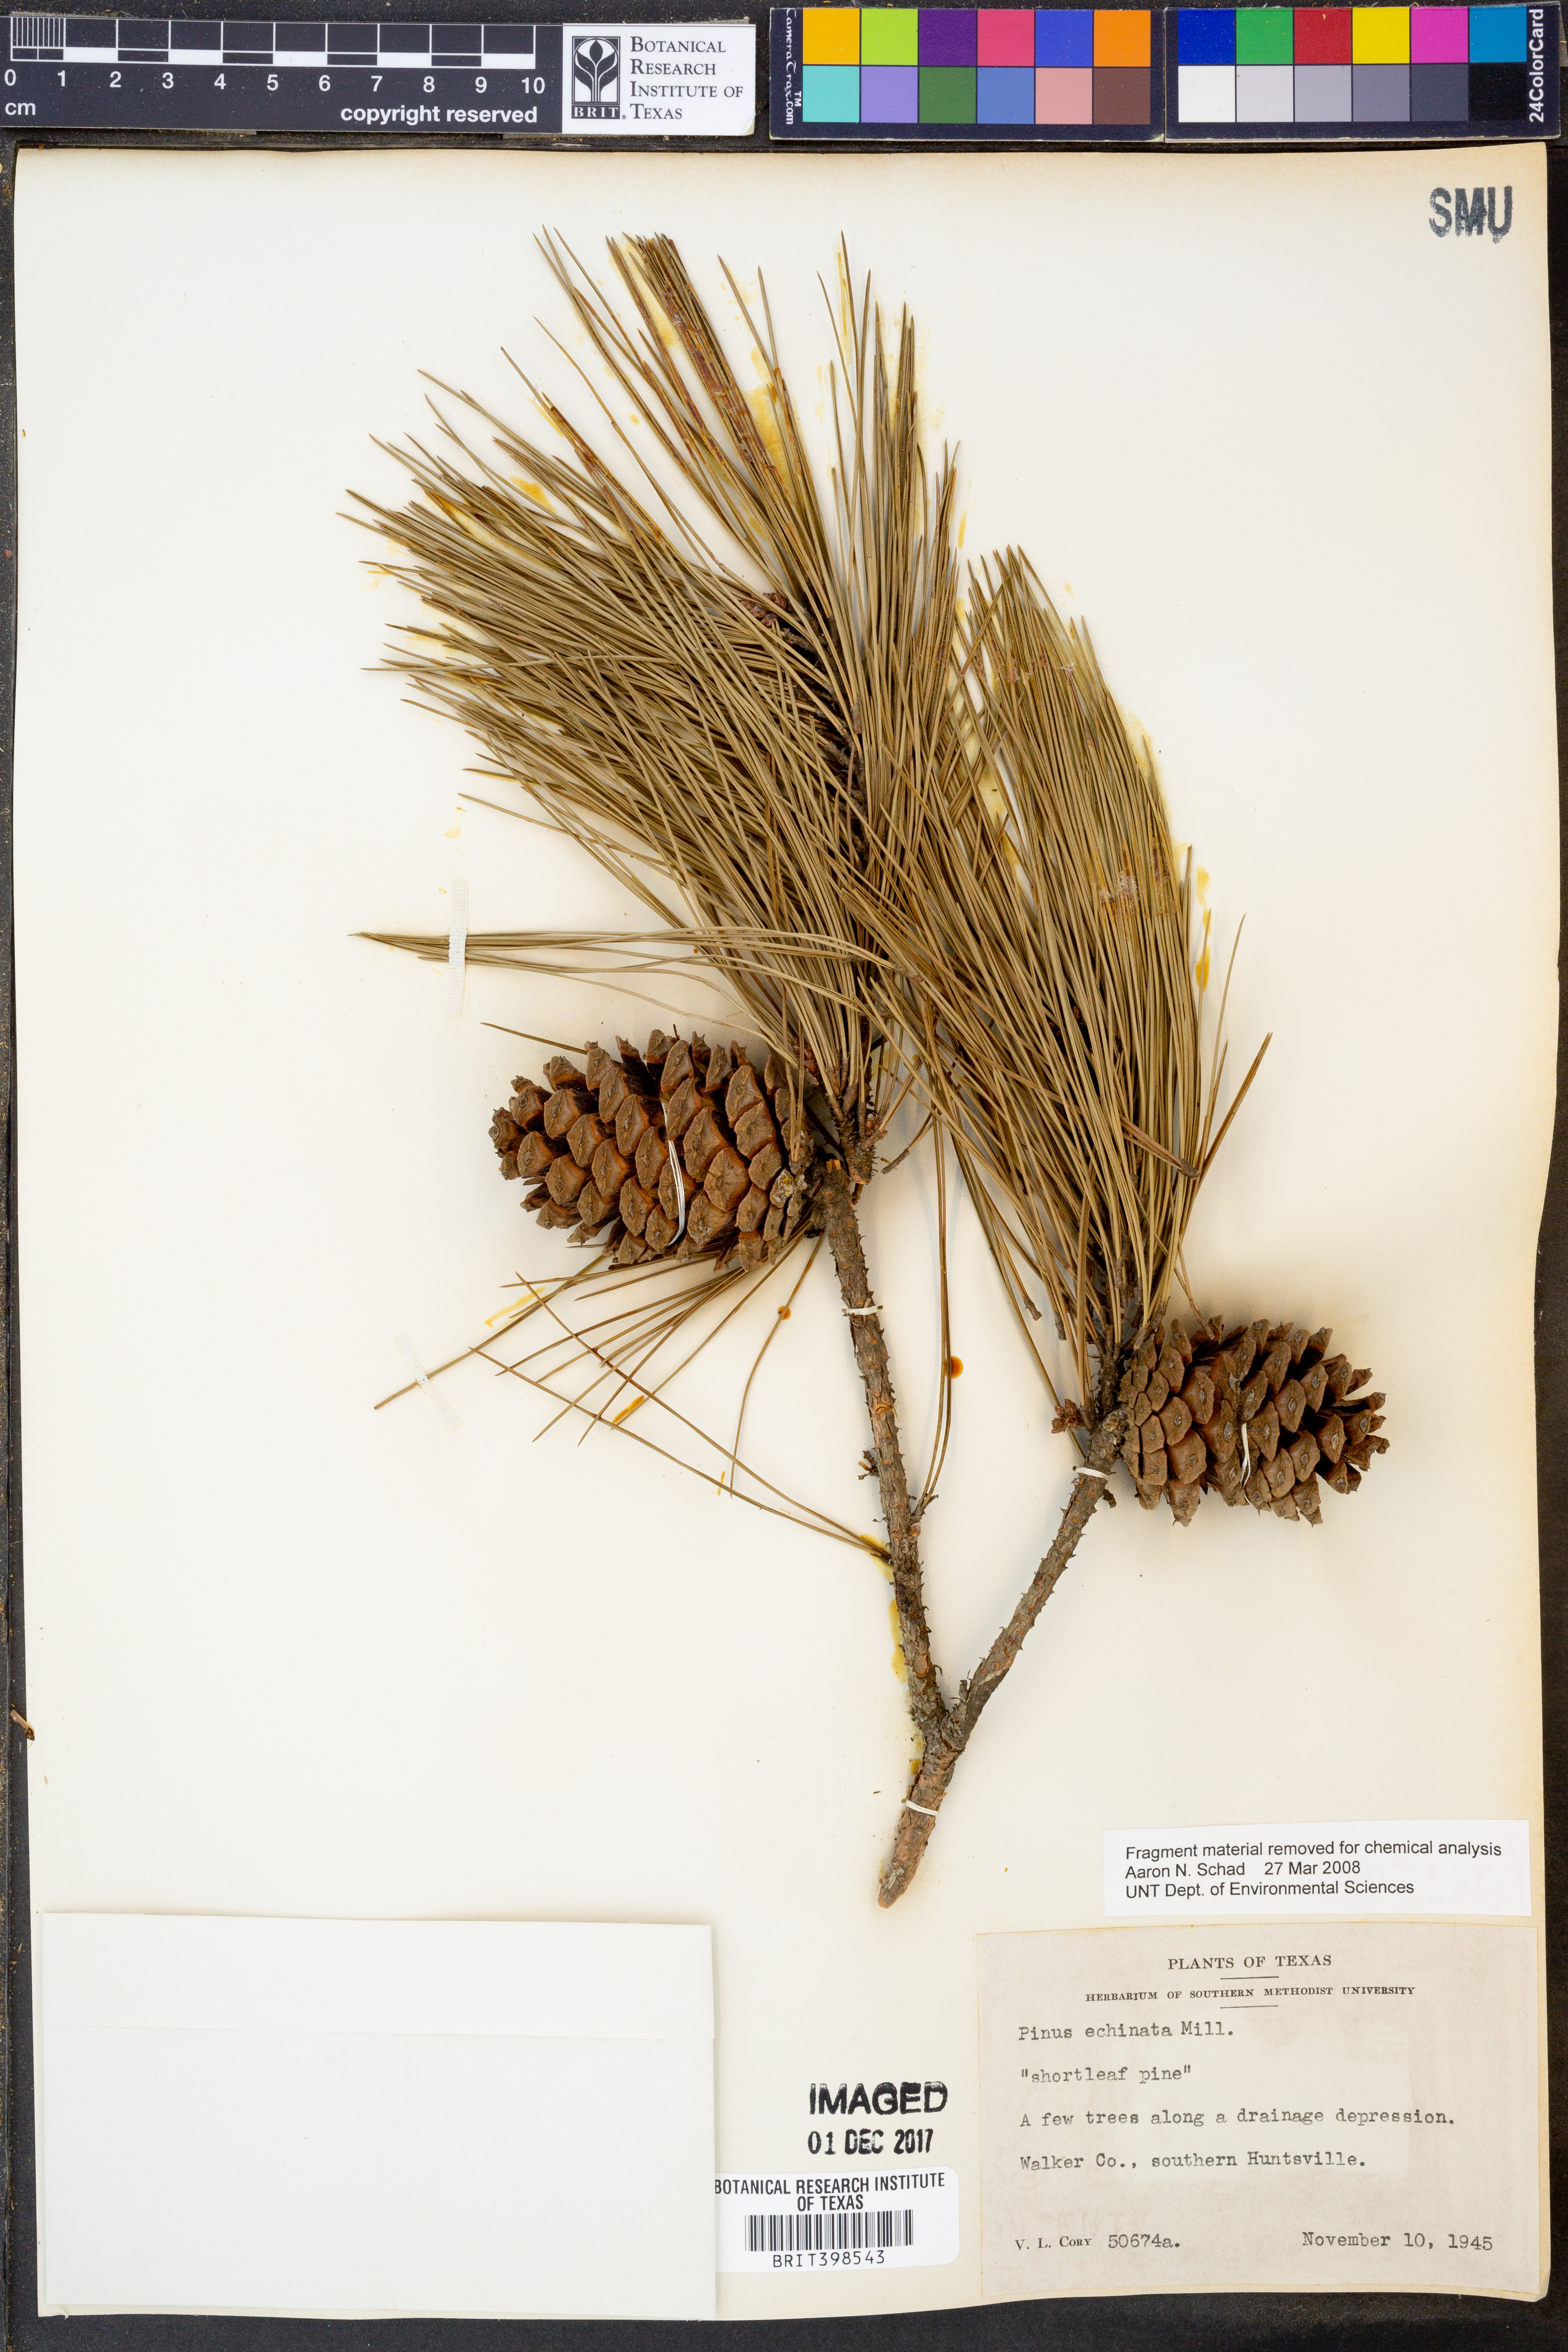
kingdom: Plantae
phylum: Tracheophyta
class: Pinopsida
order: Pinales
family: Pinaceae
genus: Pinus
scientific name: Pinus echinata
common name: Shortleaf pine
